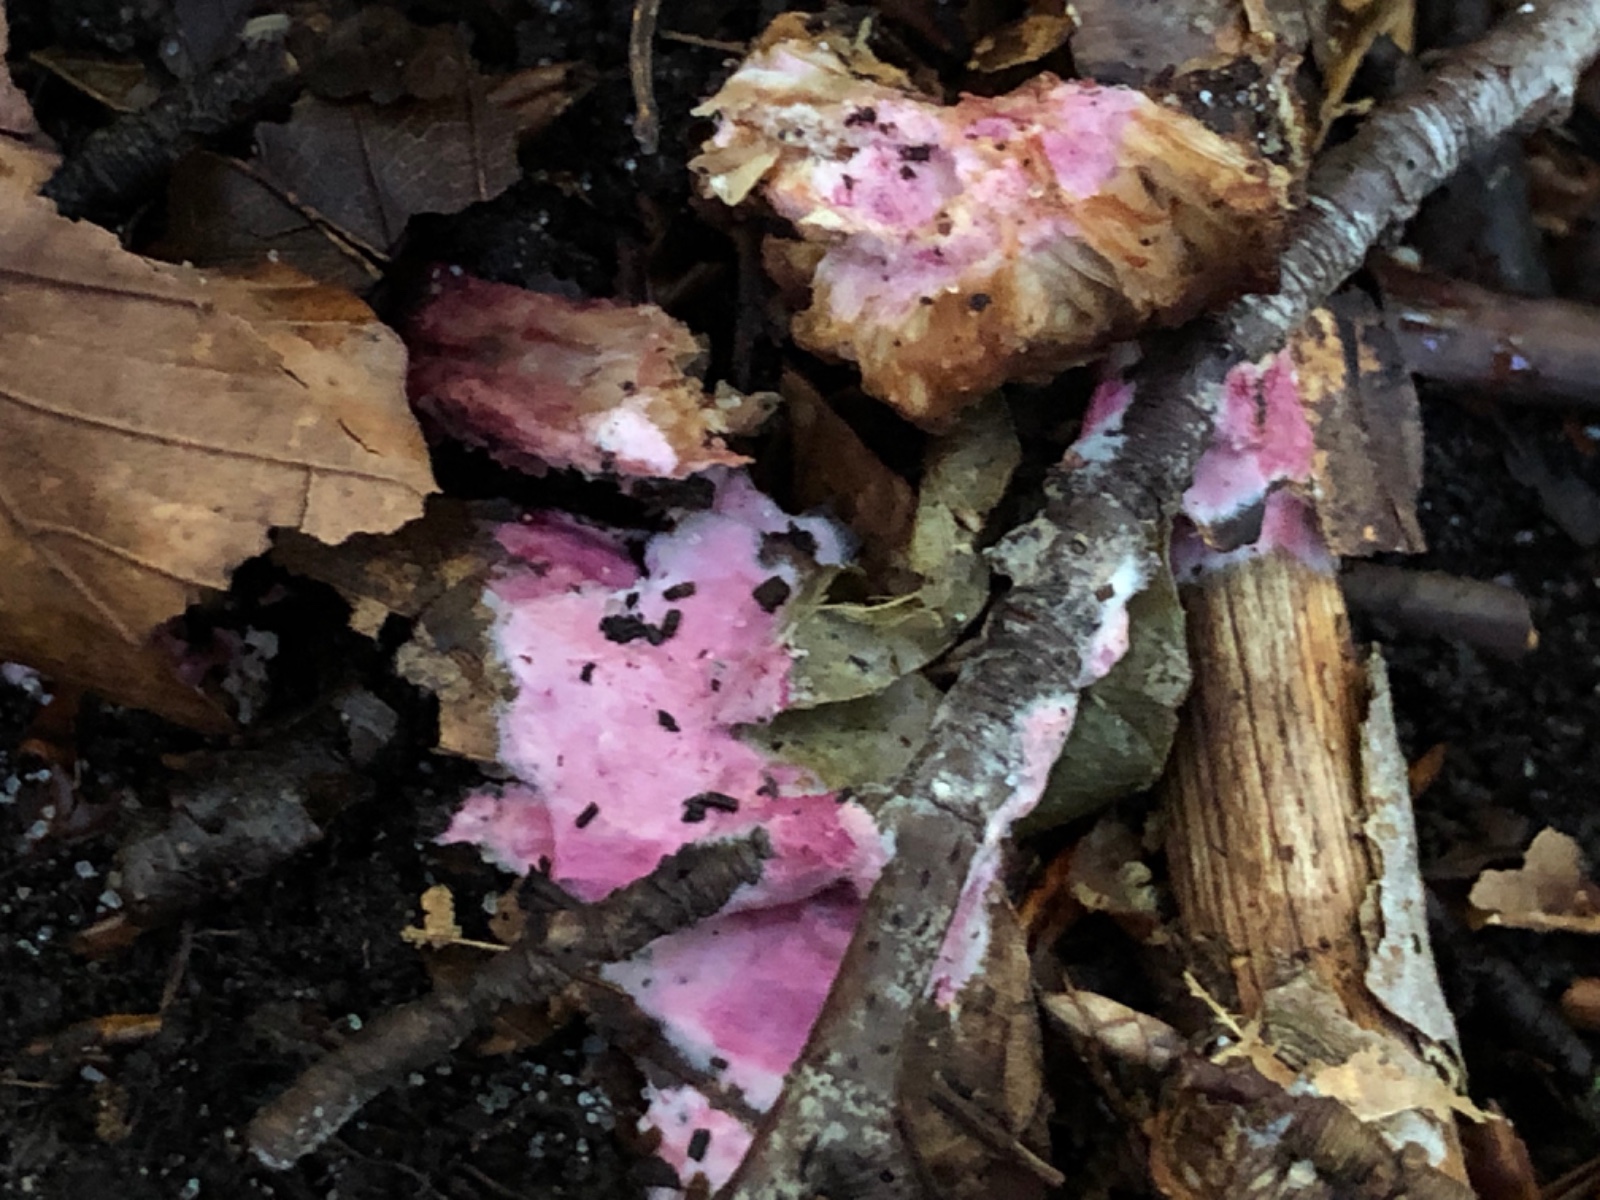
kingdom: Fungi
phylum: Ascomycota
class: Sordariomycetes
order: Hypocreales
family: Hypocreaceae
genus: Hypomyces
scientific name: Hypomyces rosellus
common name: rosa snylteskorpe
